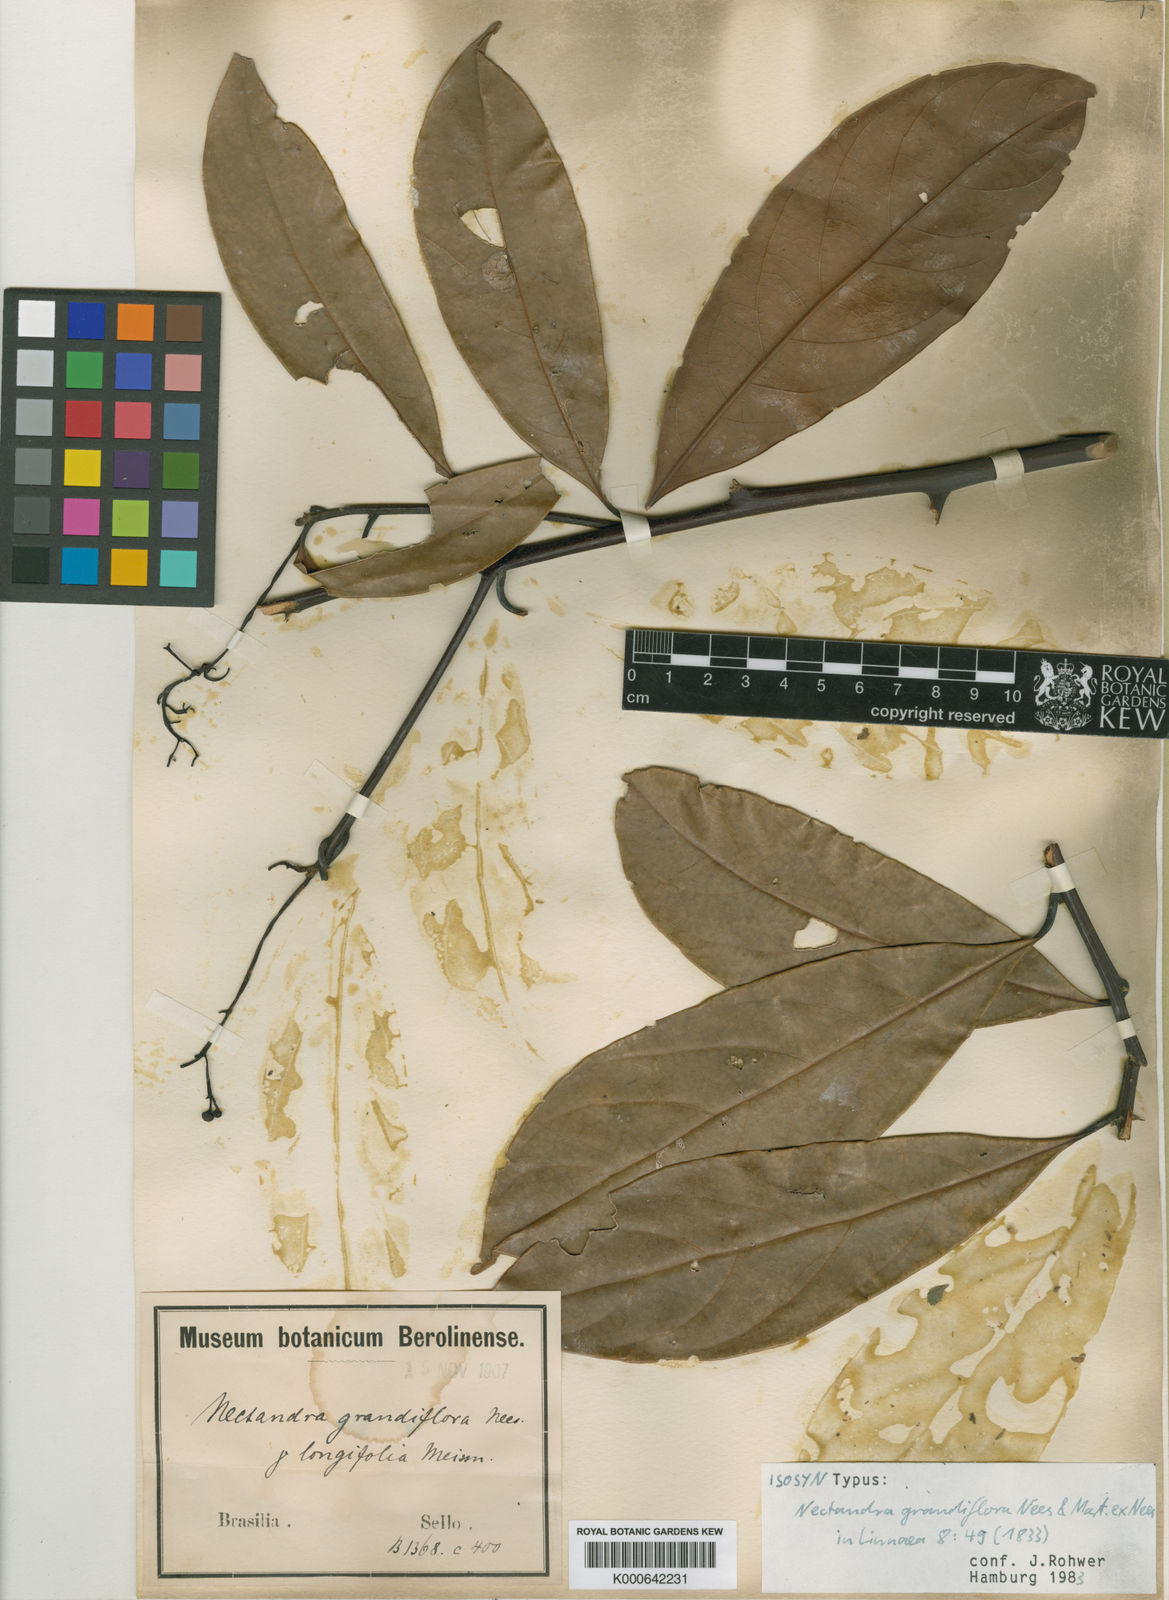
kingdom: Plantae
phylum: Tracheophyta
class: Magnoliopsida
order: Laurales
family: Lauraceae
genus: Nectandra
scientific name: Nectandra grandiflora
